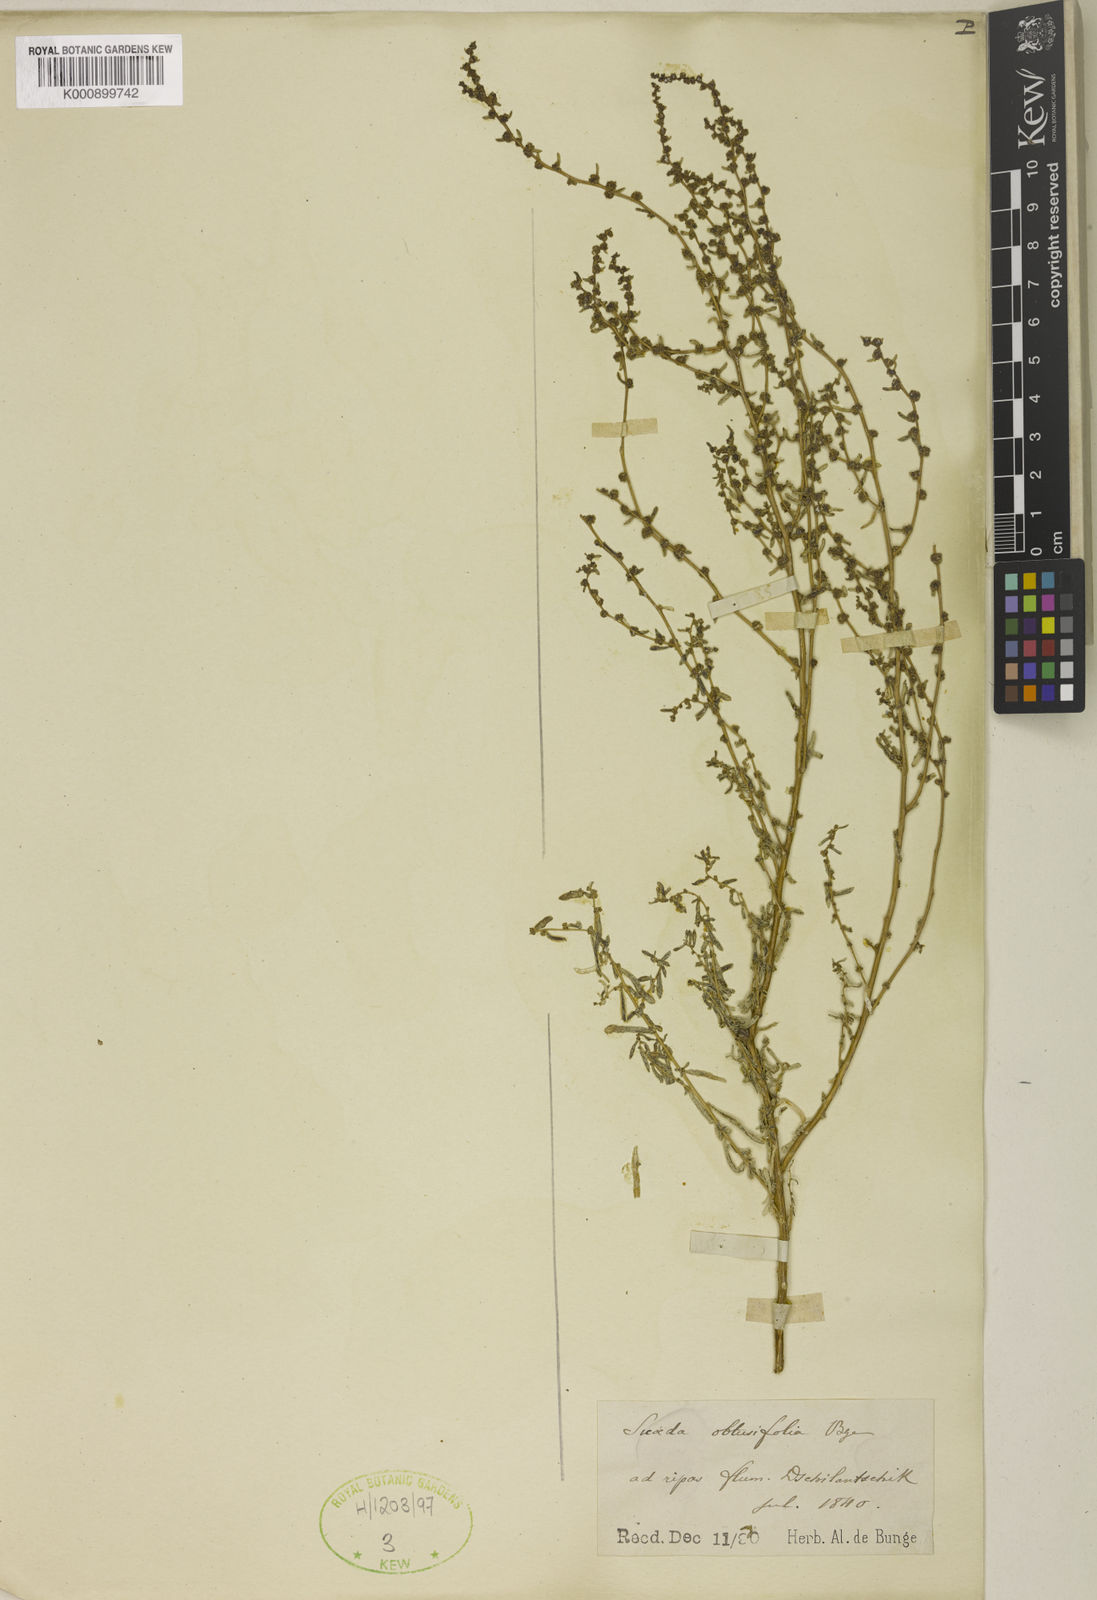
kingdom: Plantae
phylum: Tracheophyta
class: Magnoliopsida
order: Caryophyllales
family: Amaranthaceae
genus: Spirobassia
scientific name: Spirobassia hirsuta
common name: Hairy smotherweed
